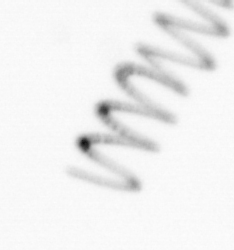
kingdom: Chromista
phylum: Ochrophyta
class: Bacillariophyceae
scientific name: Bacillariophyceae
